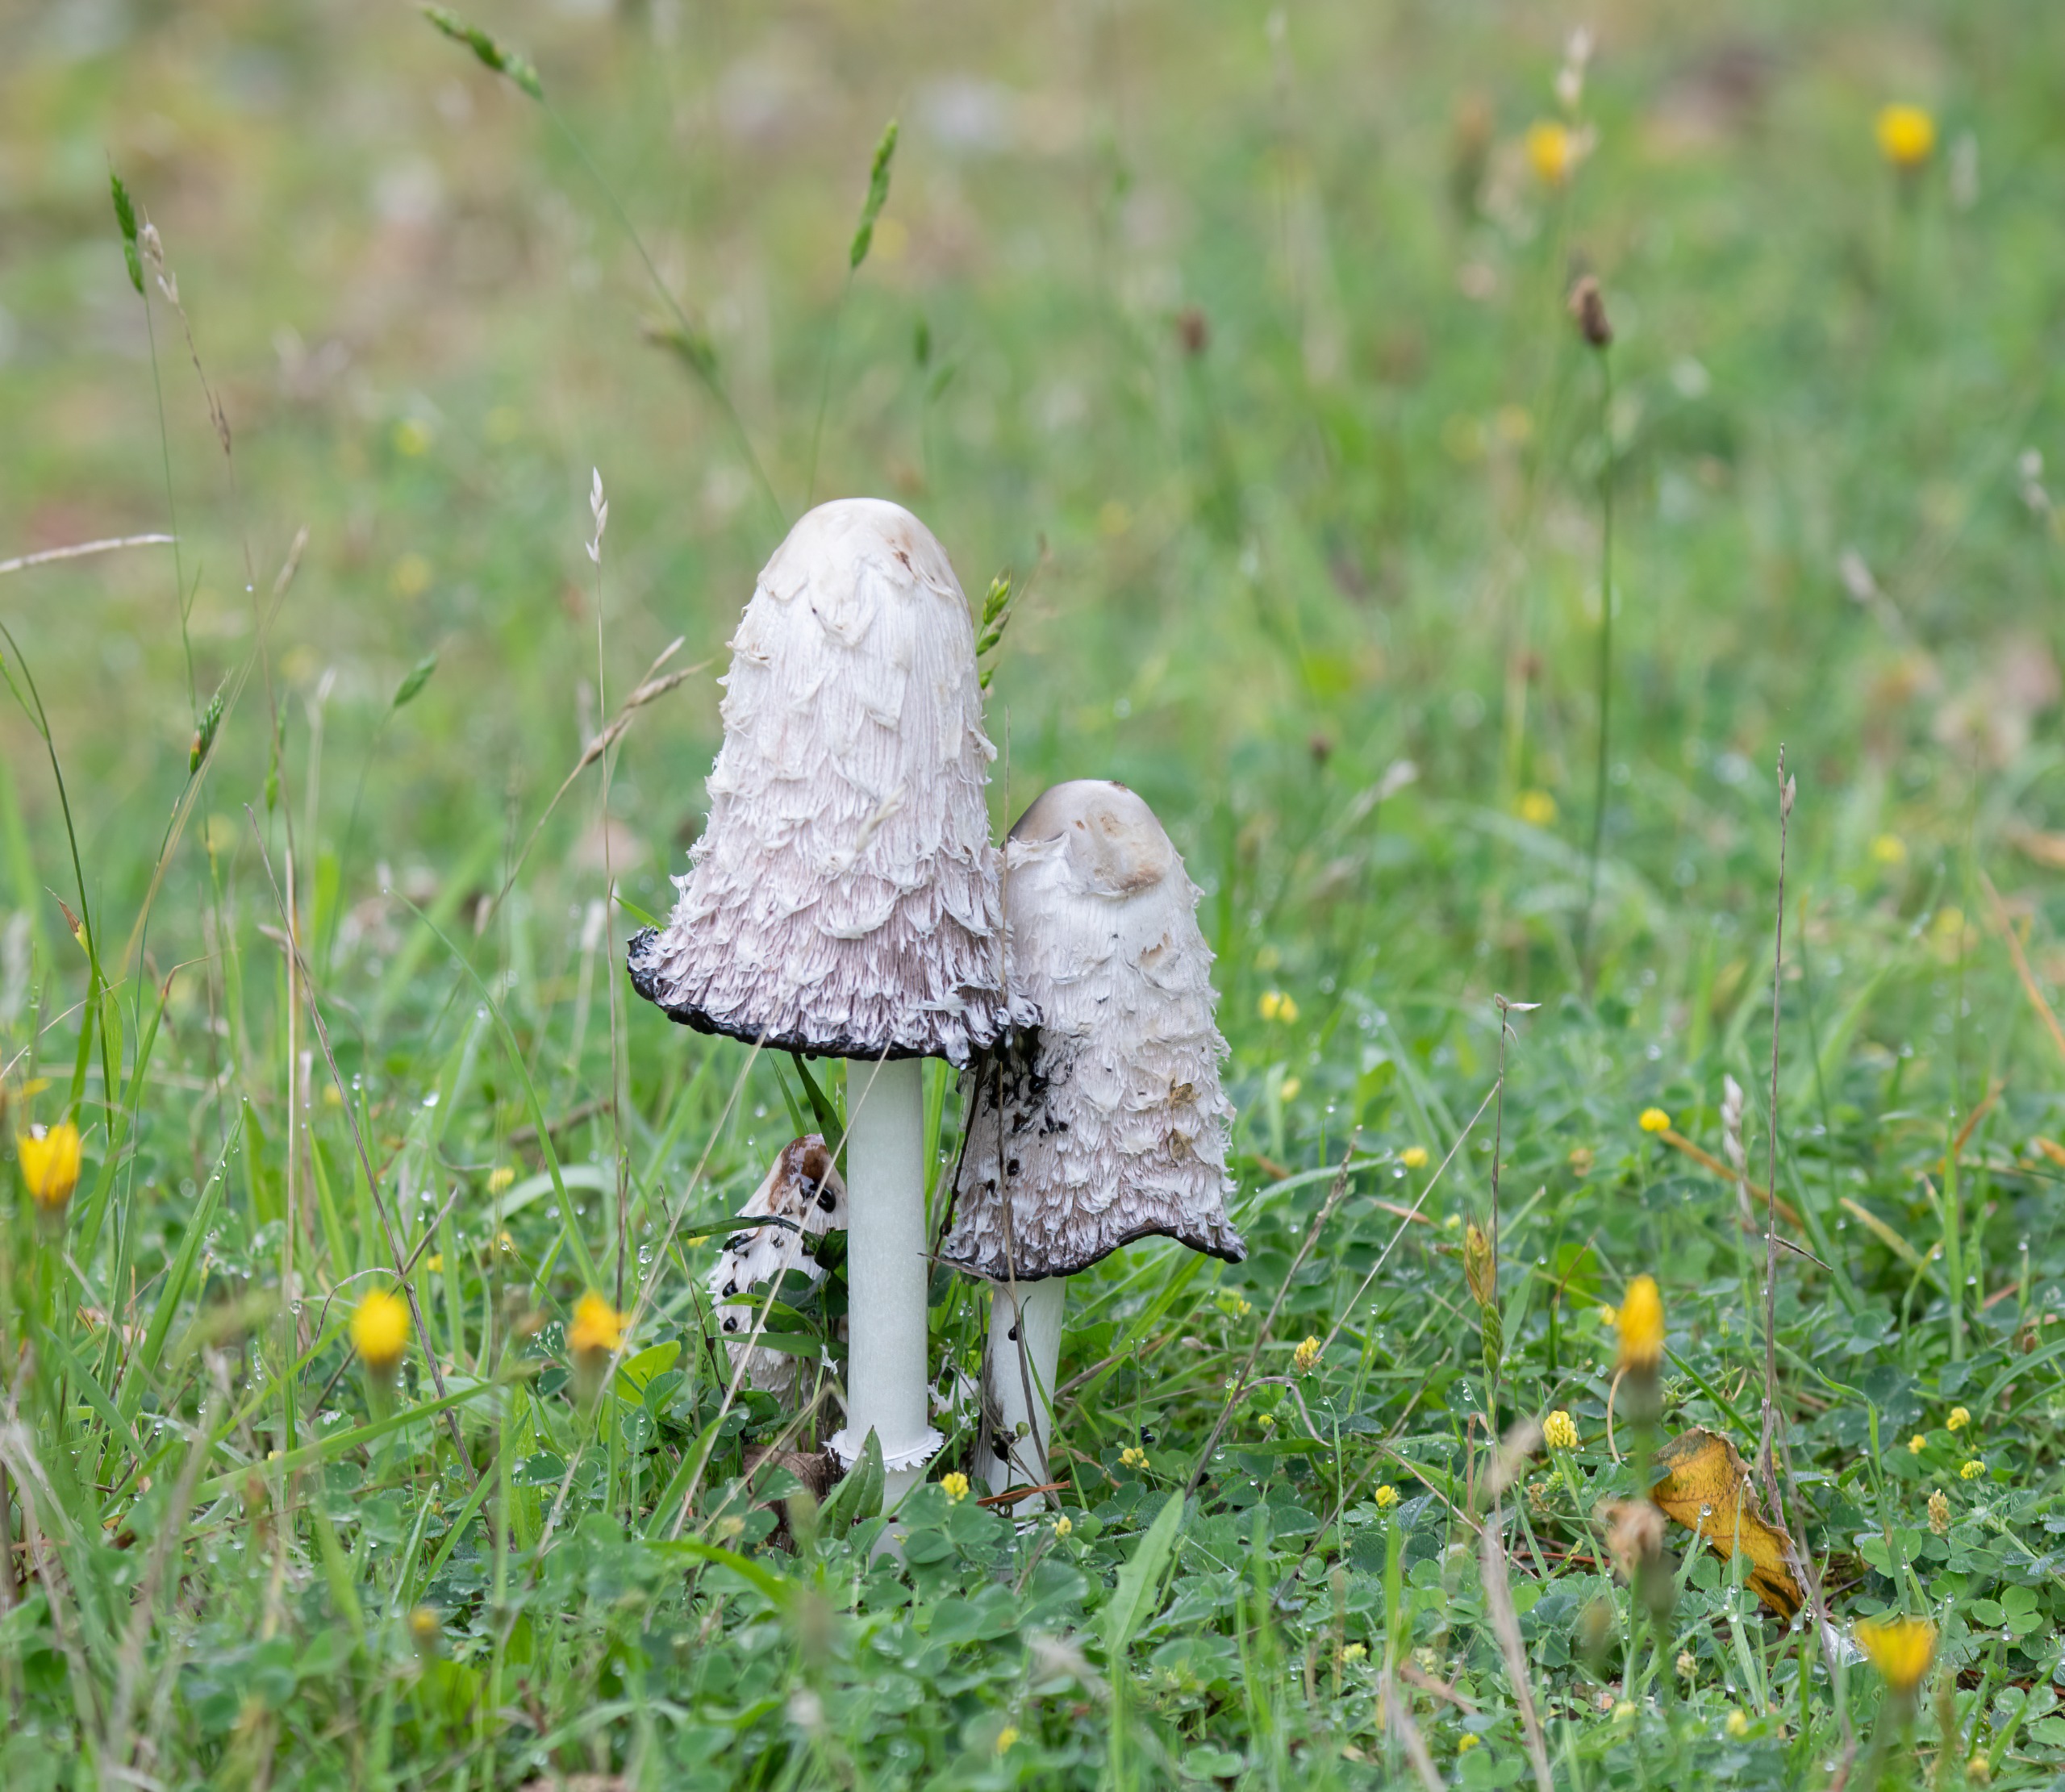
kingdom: Fungi
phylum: Basidiomycota
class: Agaricomycetes
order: Agaricales
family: Agaricaceae
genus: Coprinus
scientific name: Coprinus comatus
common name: Stor parykhat
